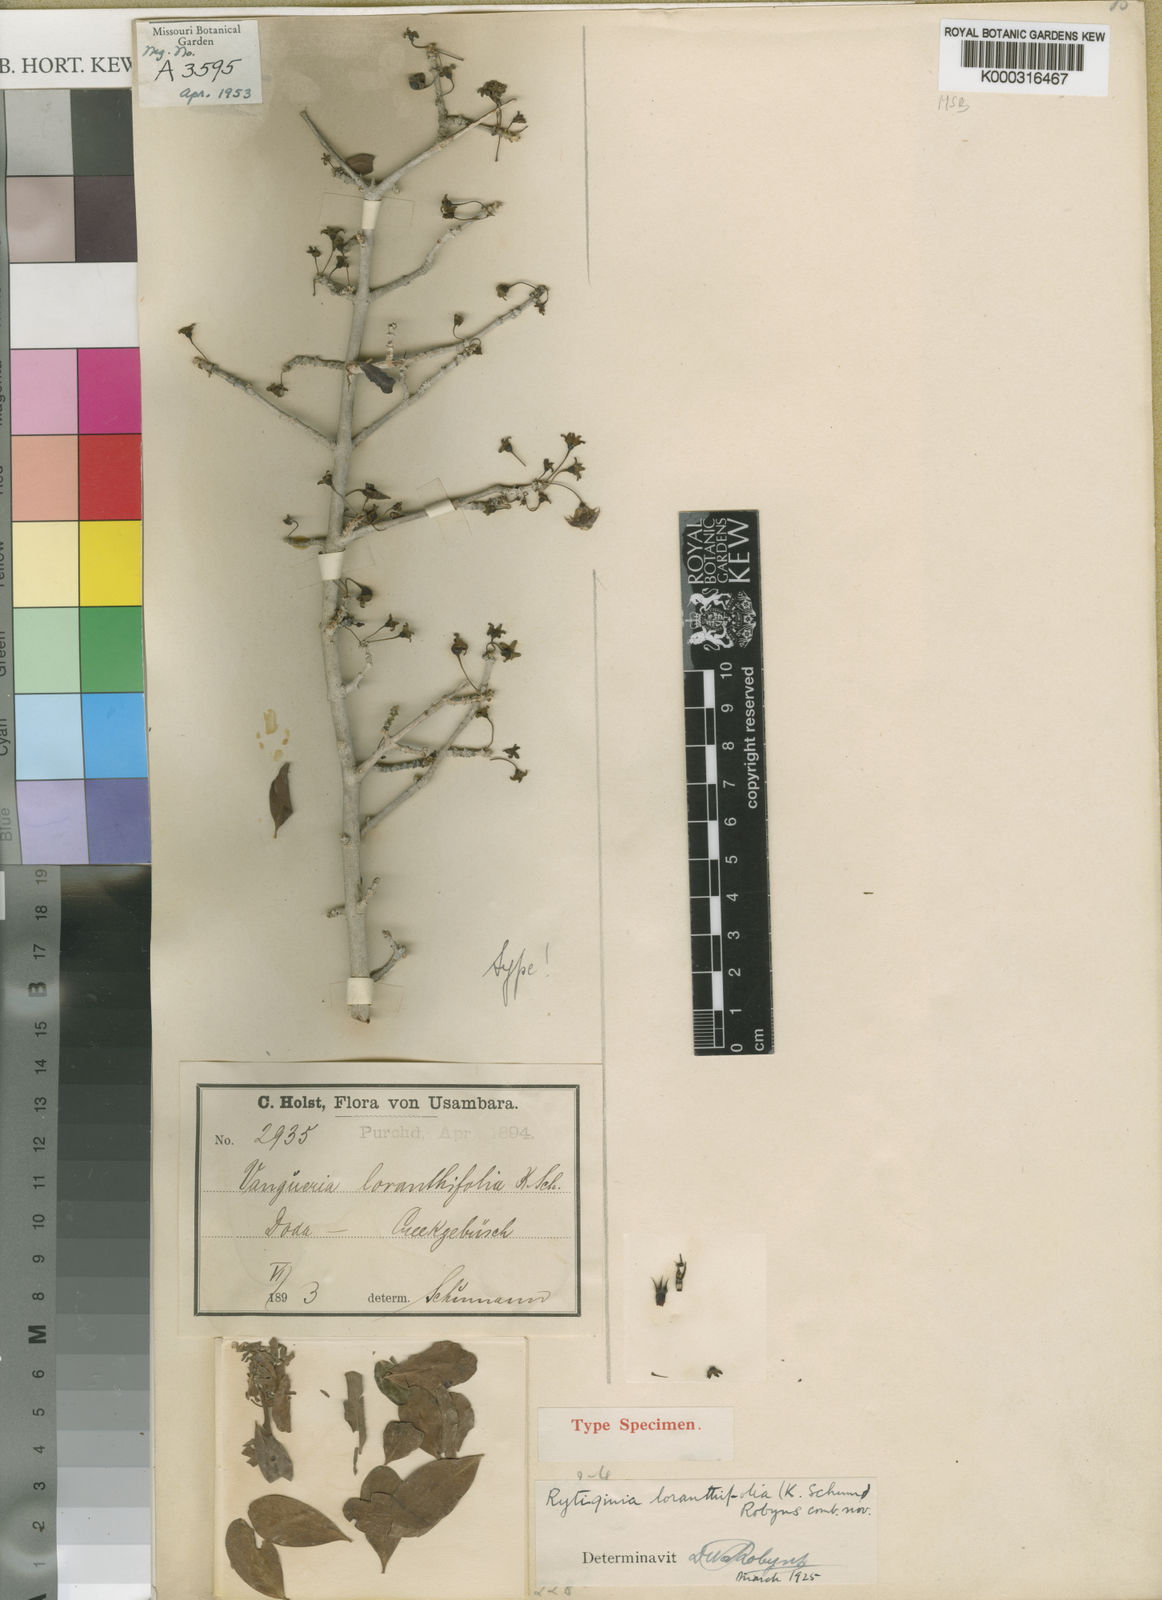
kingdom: Plantae
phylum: Tracheophyta
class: Magnoliopsida
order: Gentianales
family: Rubiaceae
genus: Vangueria
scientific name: Vangueria loranthifolia
